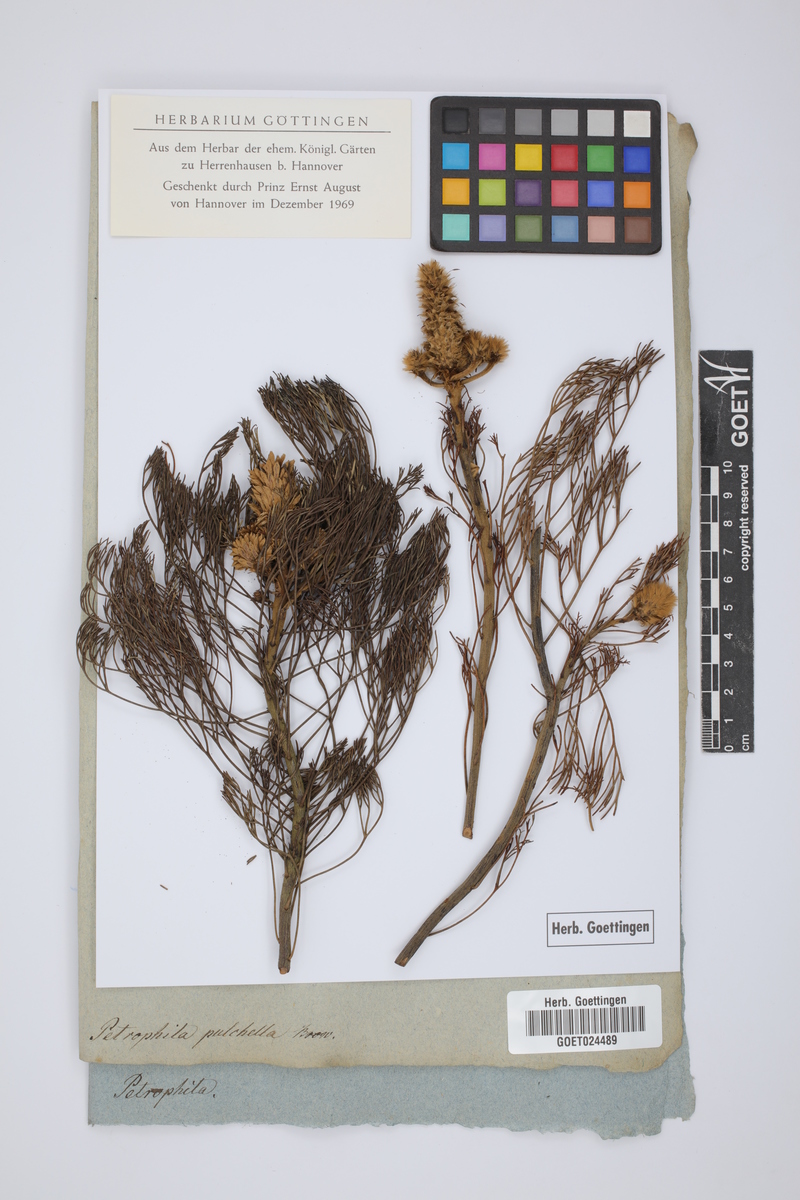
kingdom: Plantae
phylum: Tracheophyta
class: Magnoliopsida
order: Proteales
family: Proteaceae
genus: Petrophile
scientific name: Petrophile pulchella
